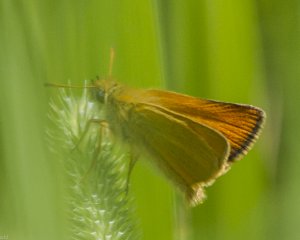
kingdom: Animalia
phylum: Arthropoda
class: Insecta
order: Lepidoptera
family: Hesperiidae
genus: Thymelicus
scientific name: Thymelicus lineola
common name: European Skipper
